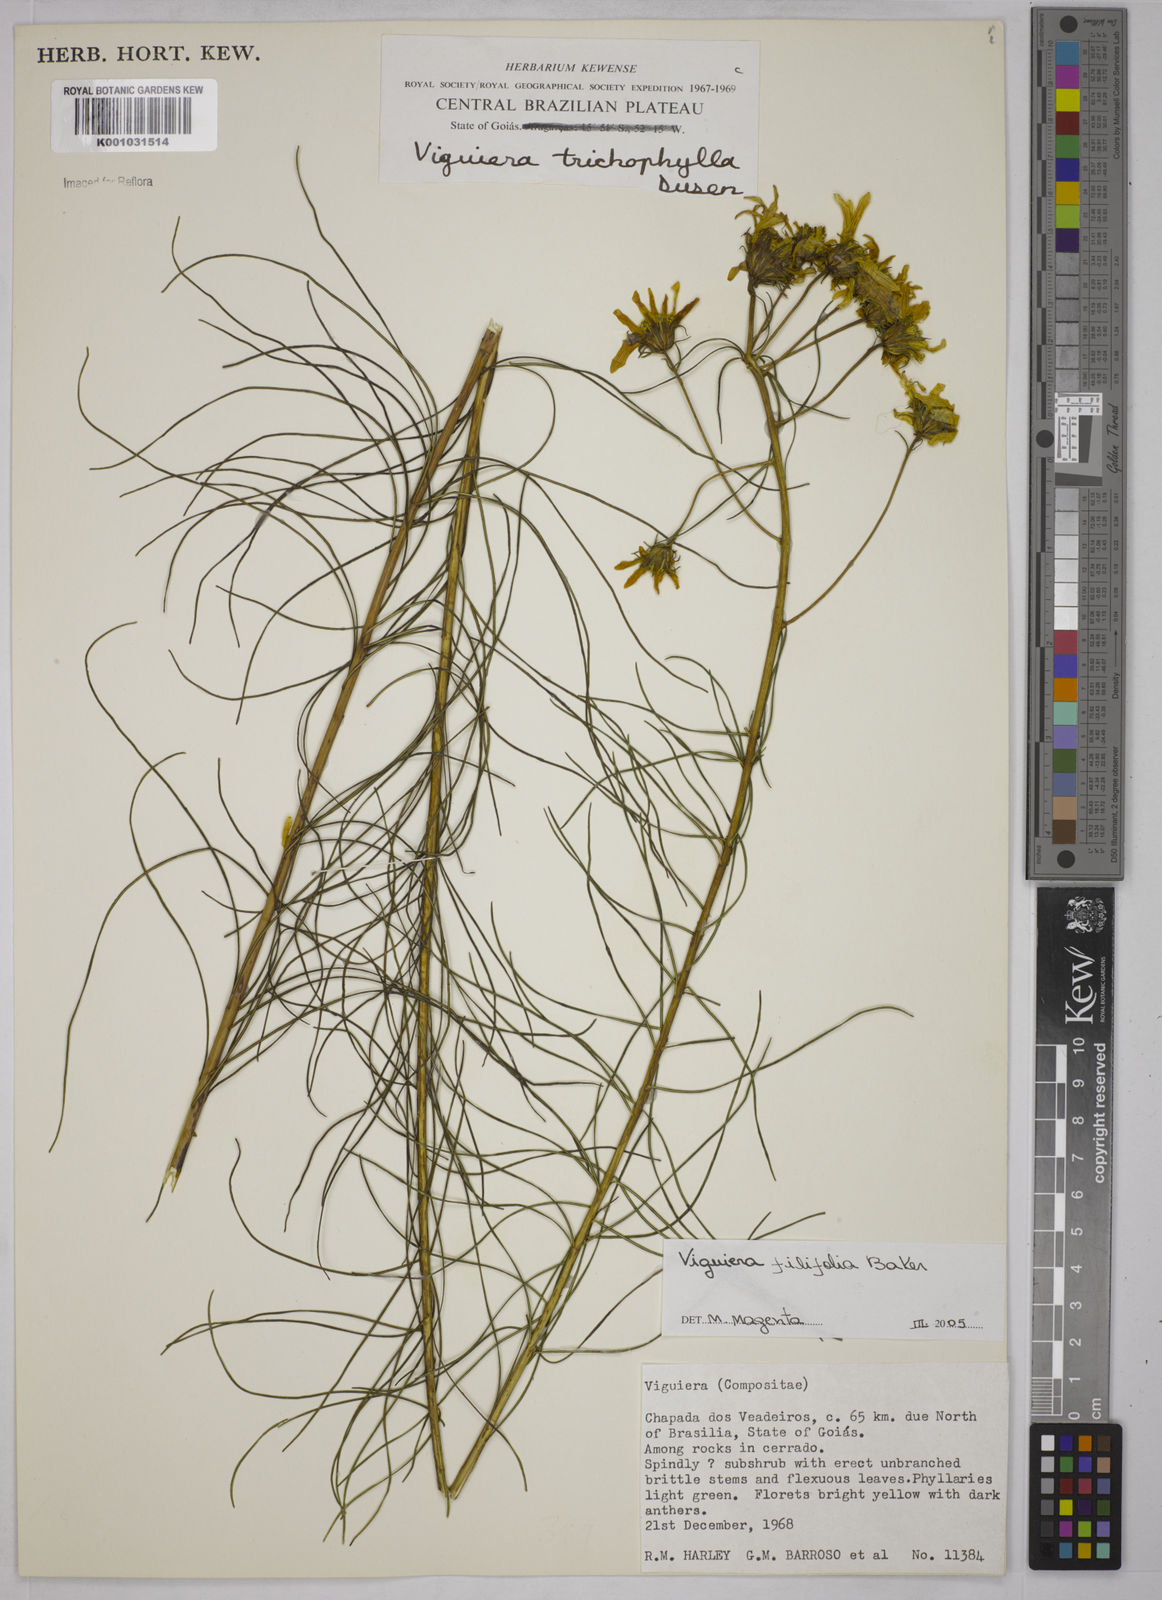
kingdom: Plantae
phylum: Tracheophyta
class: Magnoliopsida
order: Asterales
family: Asteraceae
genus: Aldama
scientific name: Aldama filifolia
